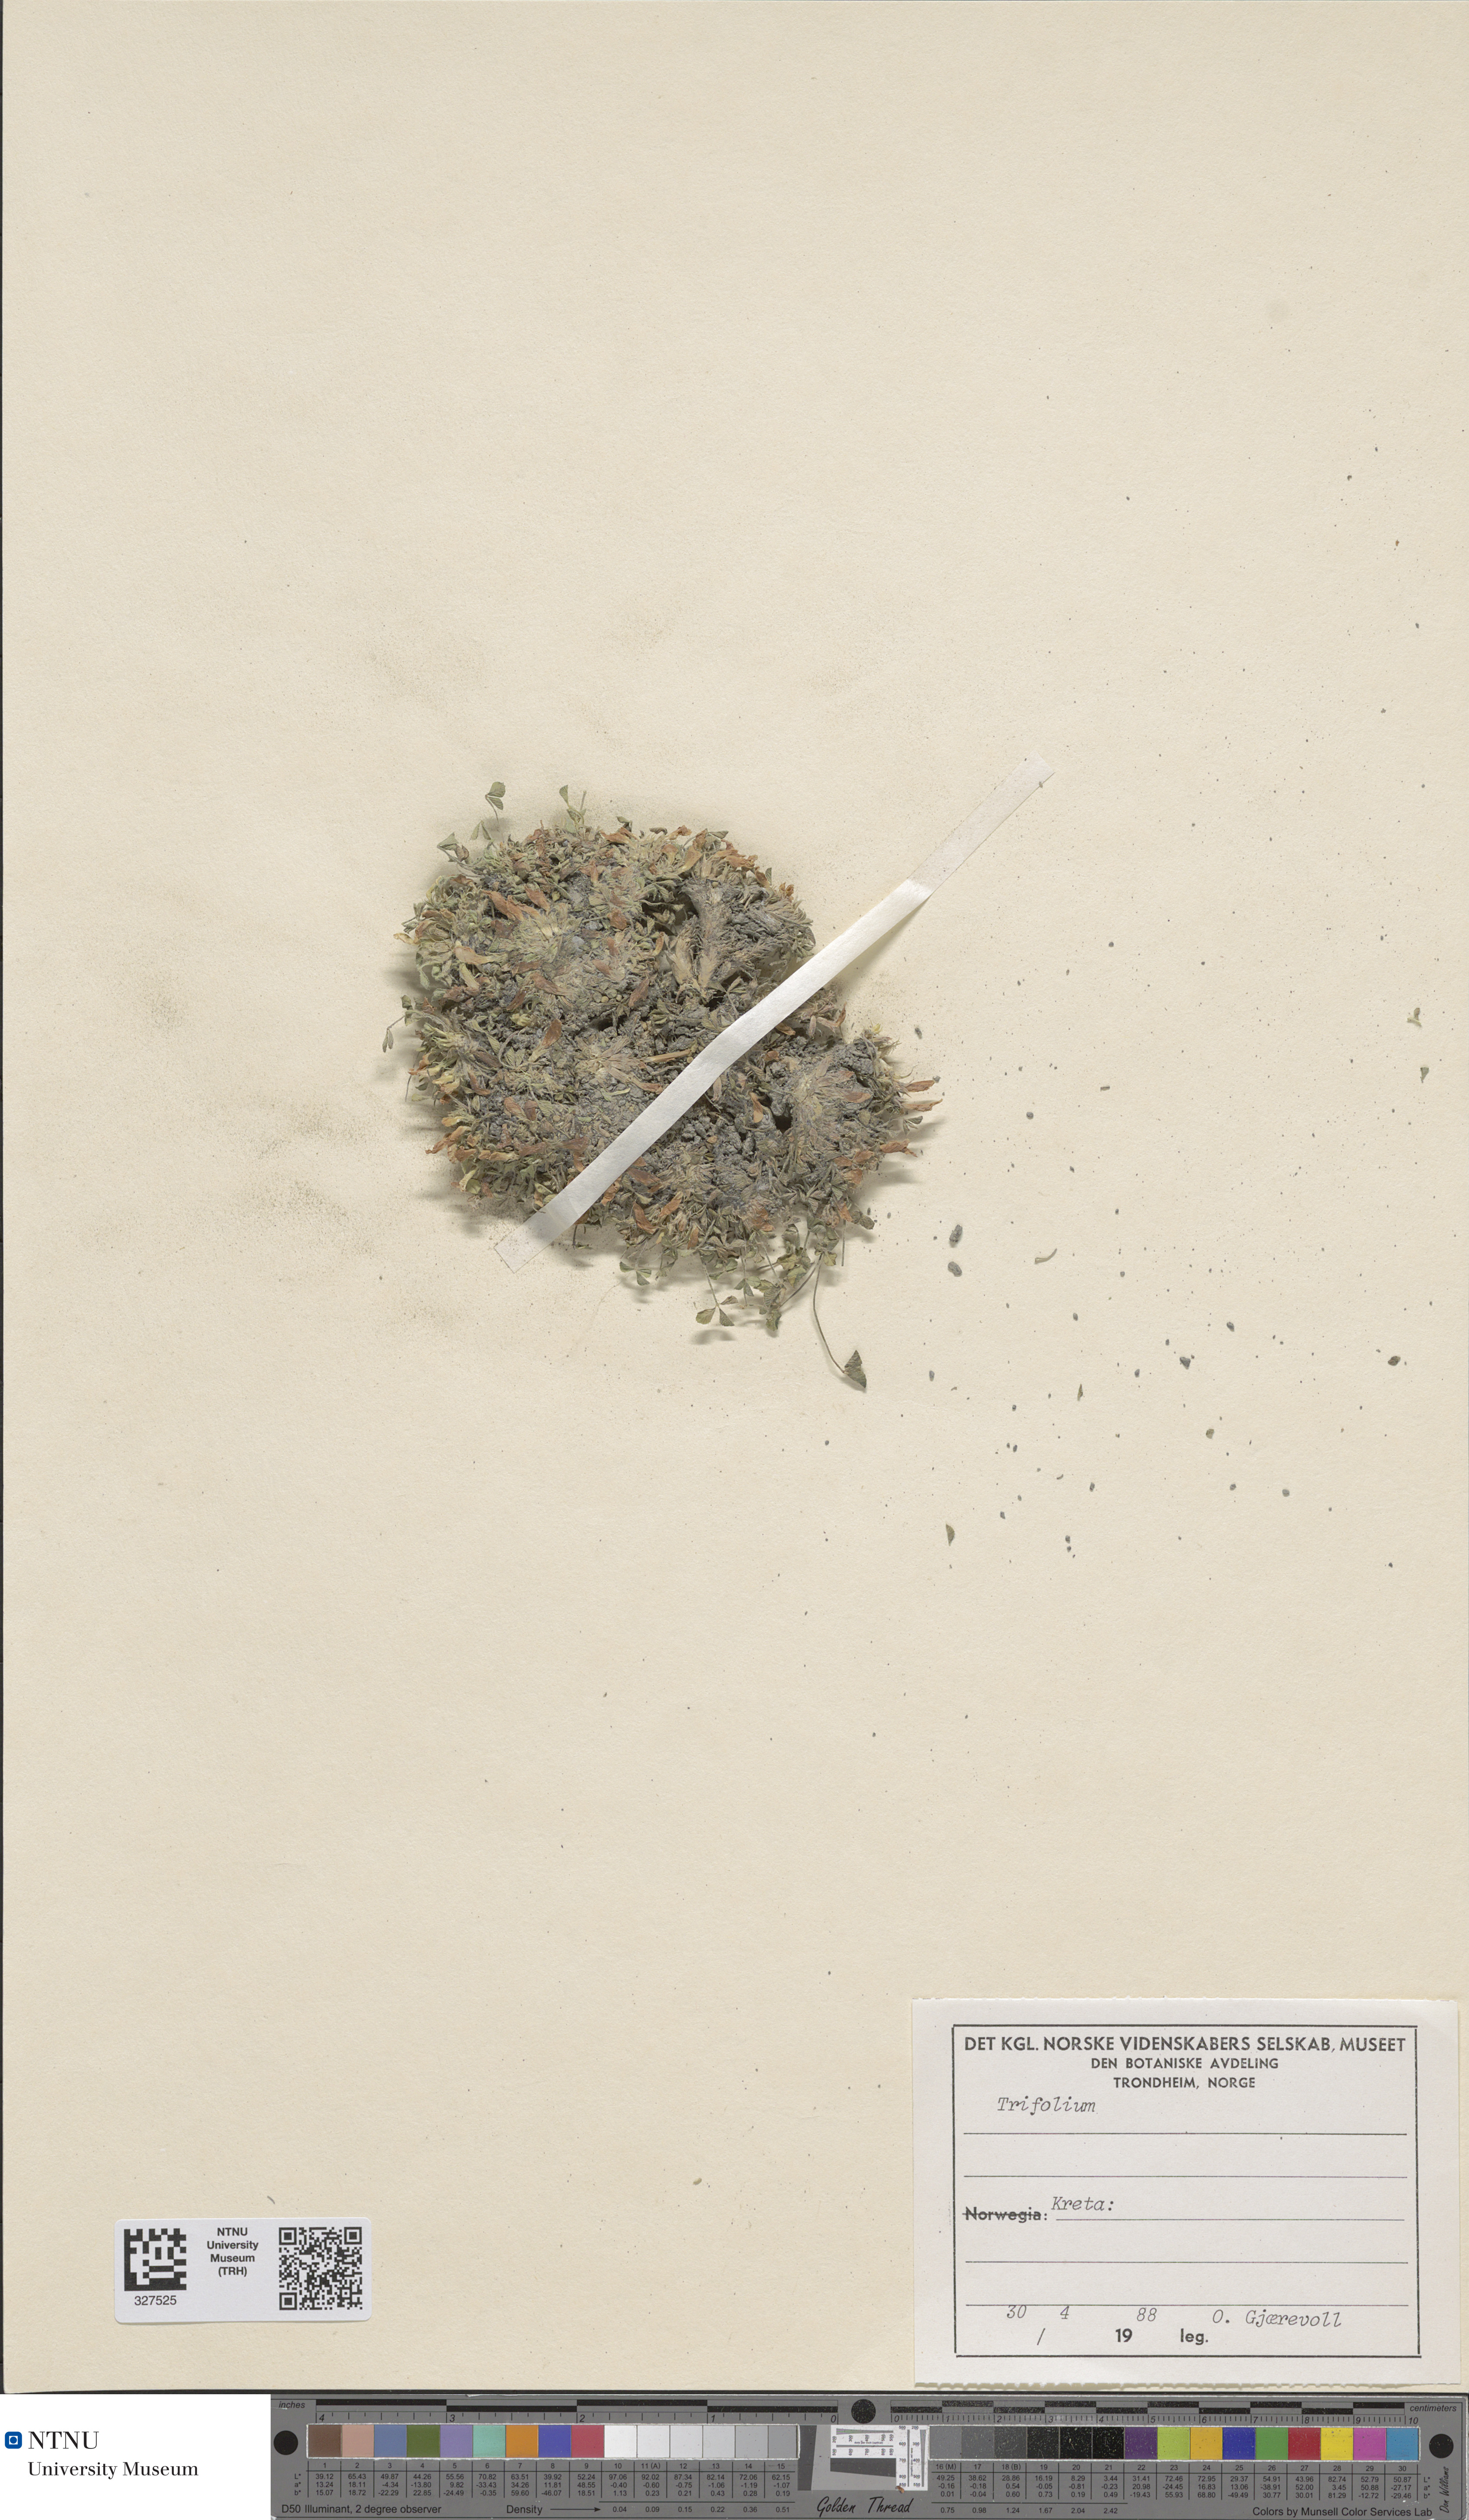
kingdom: Plantae
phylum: Tracheophyta
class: Magnoliopsida
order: Fabales
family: Fabaceae
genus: Trifolium
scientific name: Trifolium
